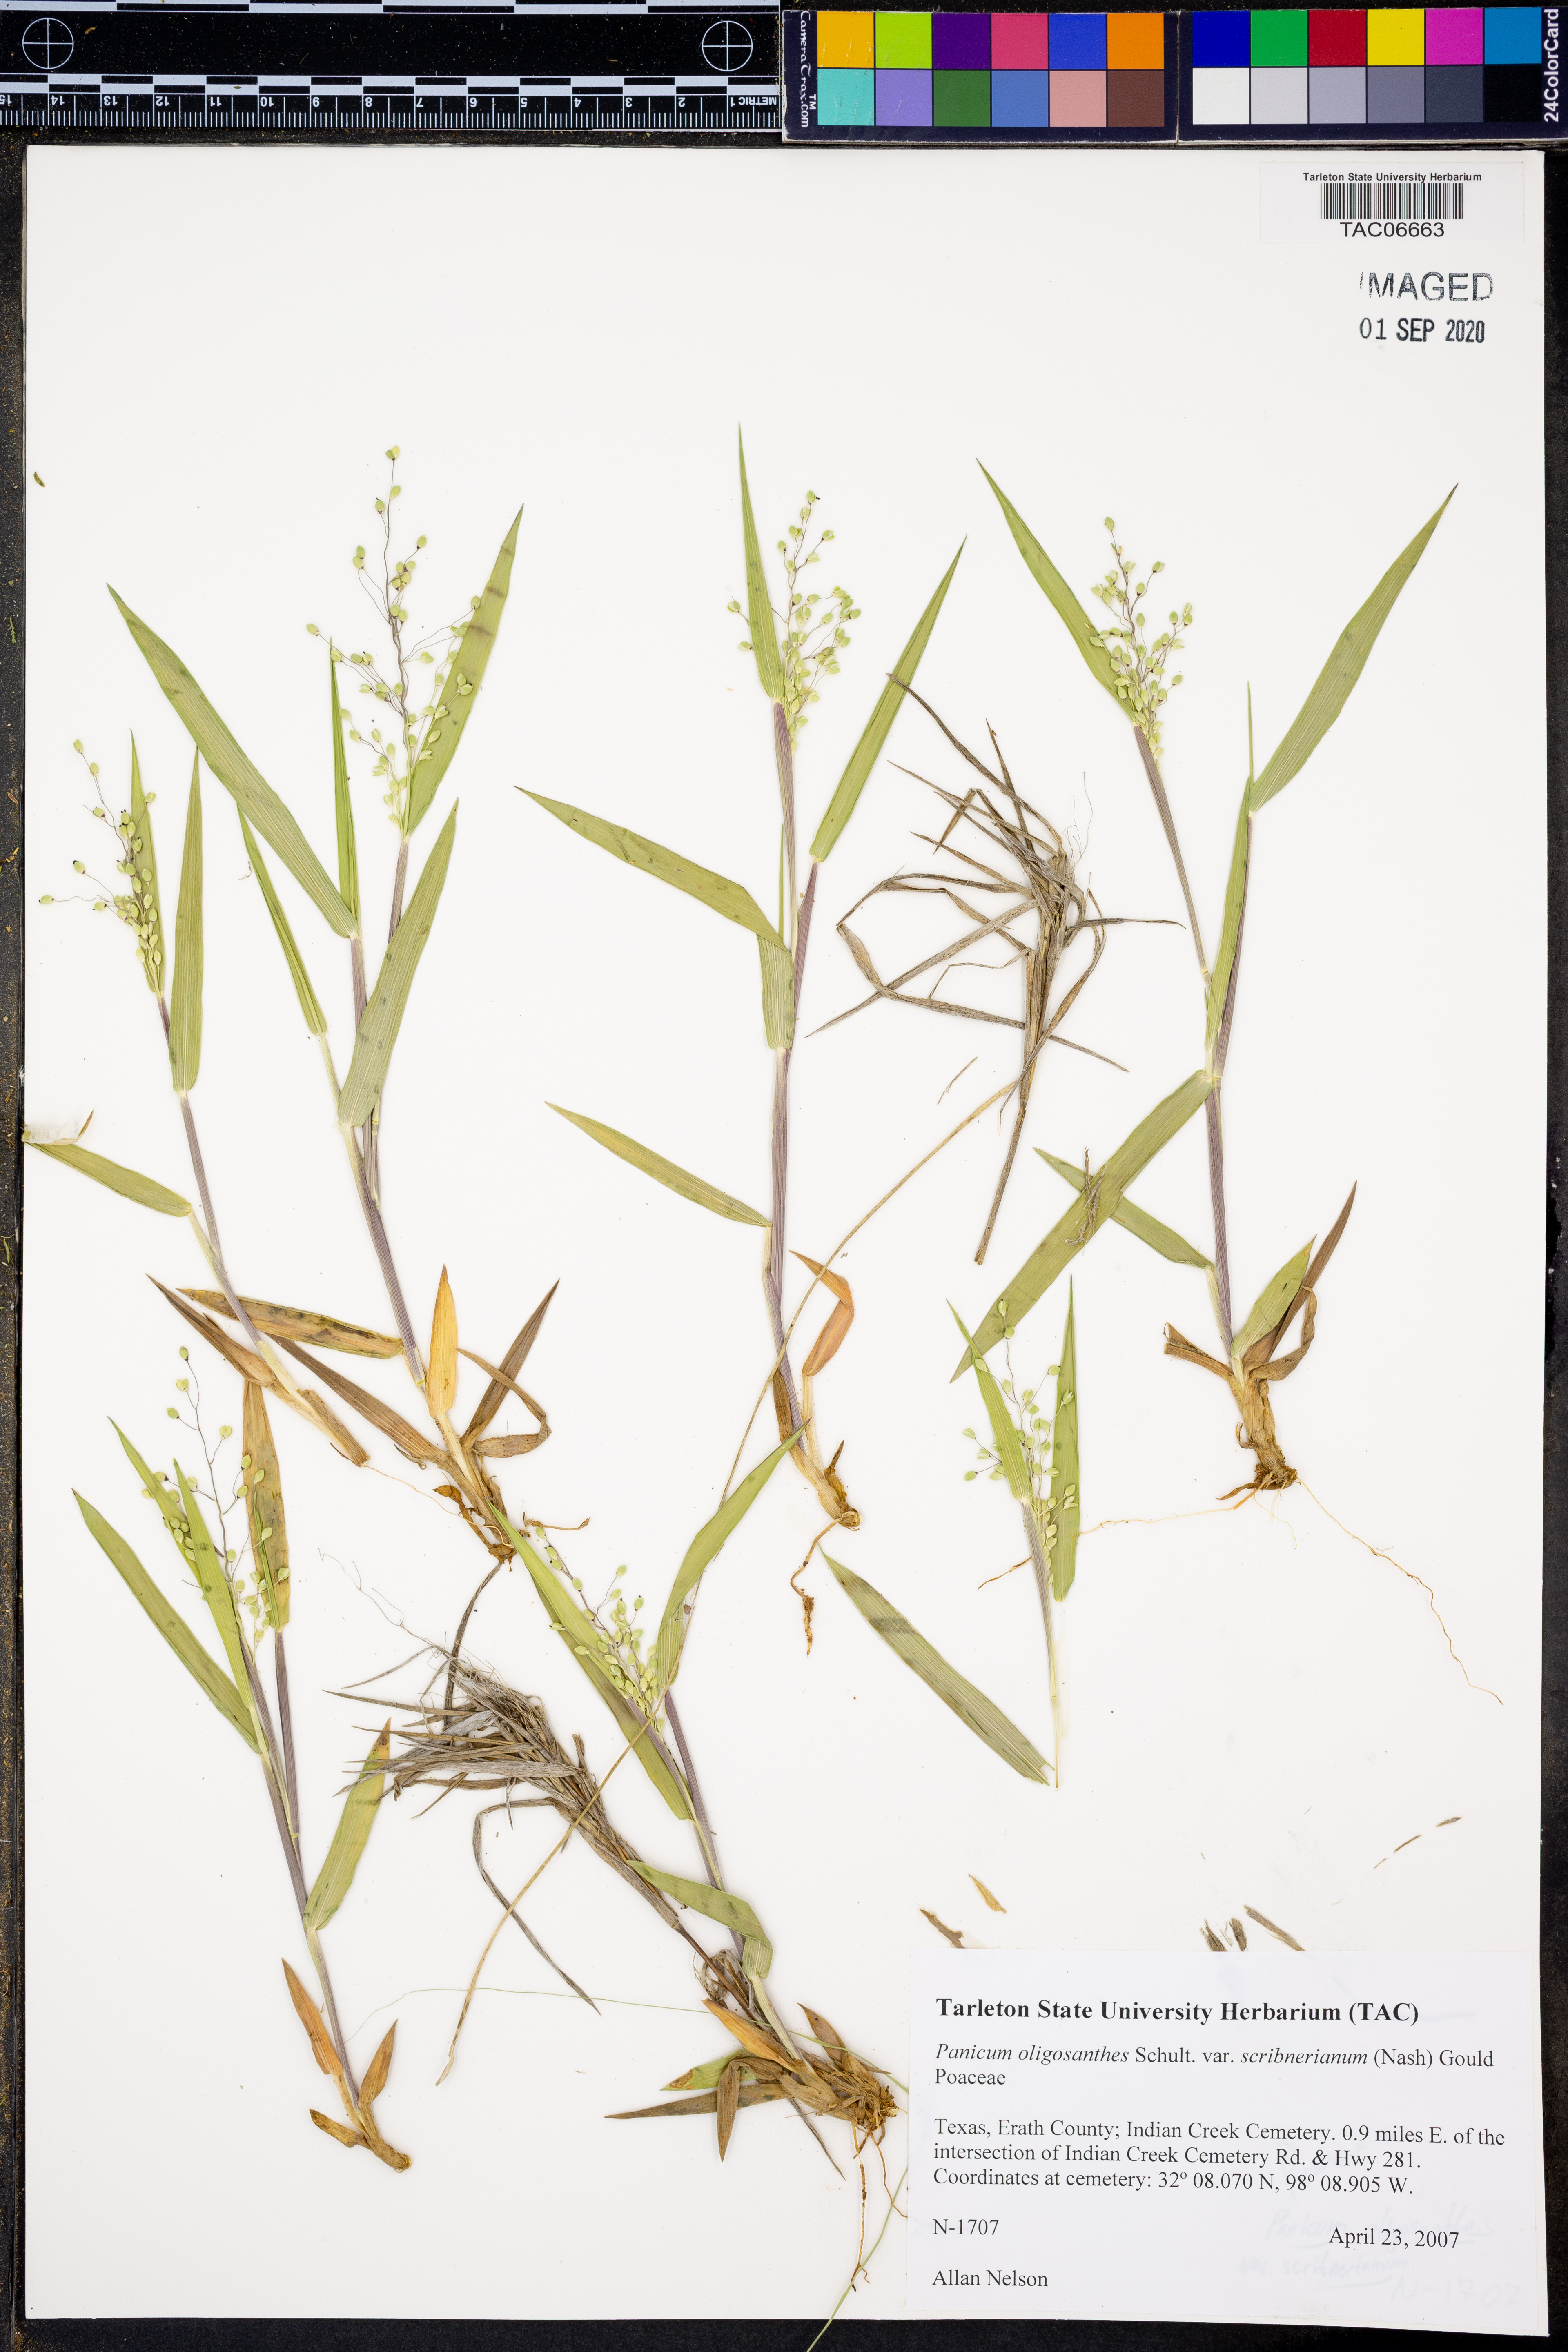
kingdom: Plantae
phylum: Tracheophyta
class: Liliopsida
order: Poales
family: Poaceae
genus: Dichanthelium
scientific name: Dichanthelium scribnerianum
